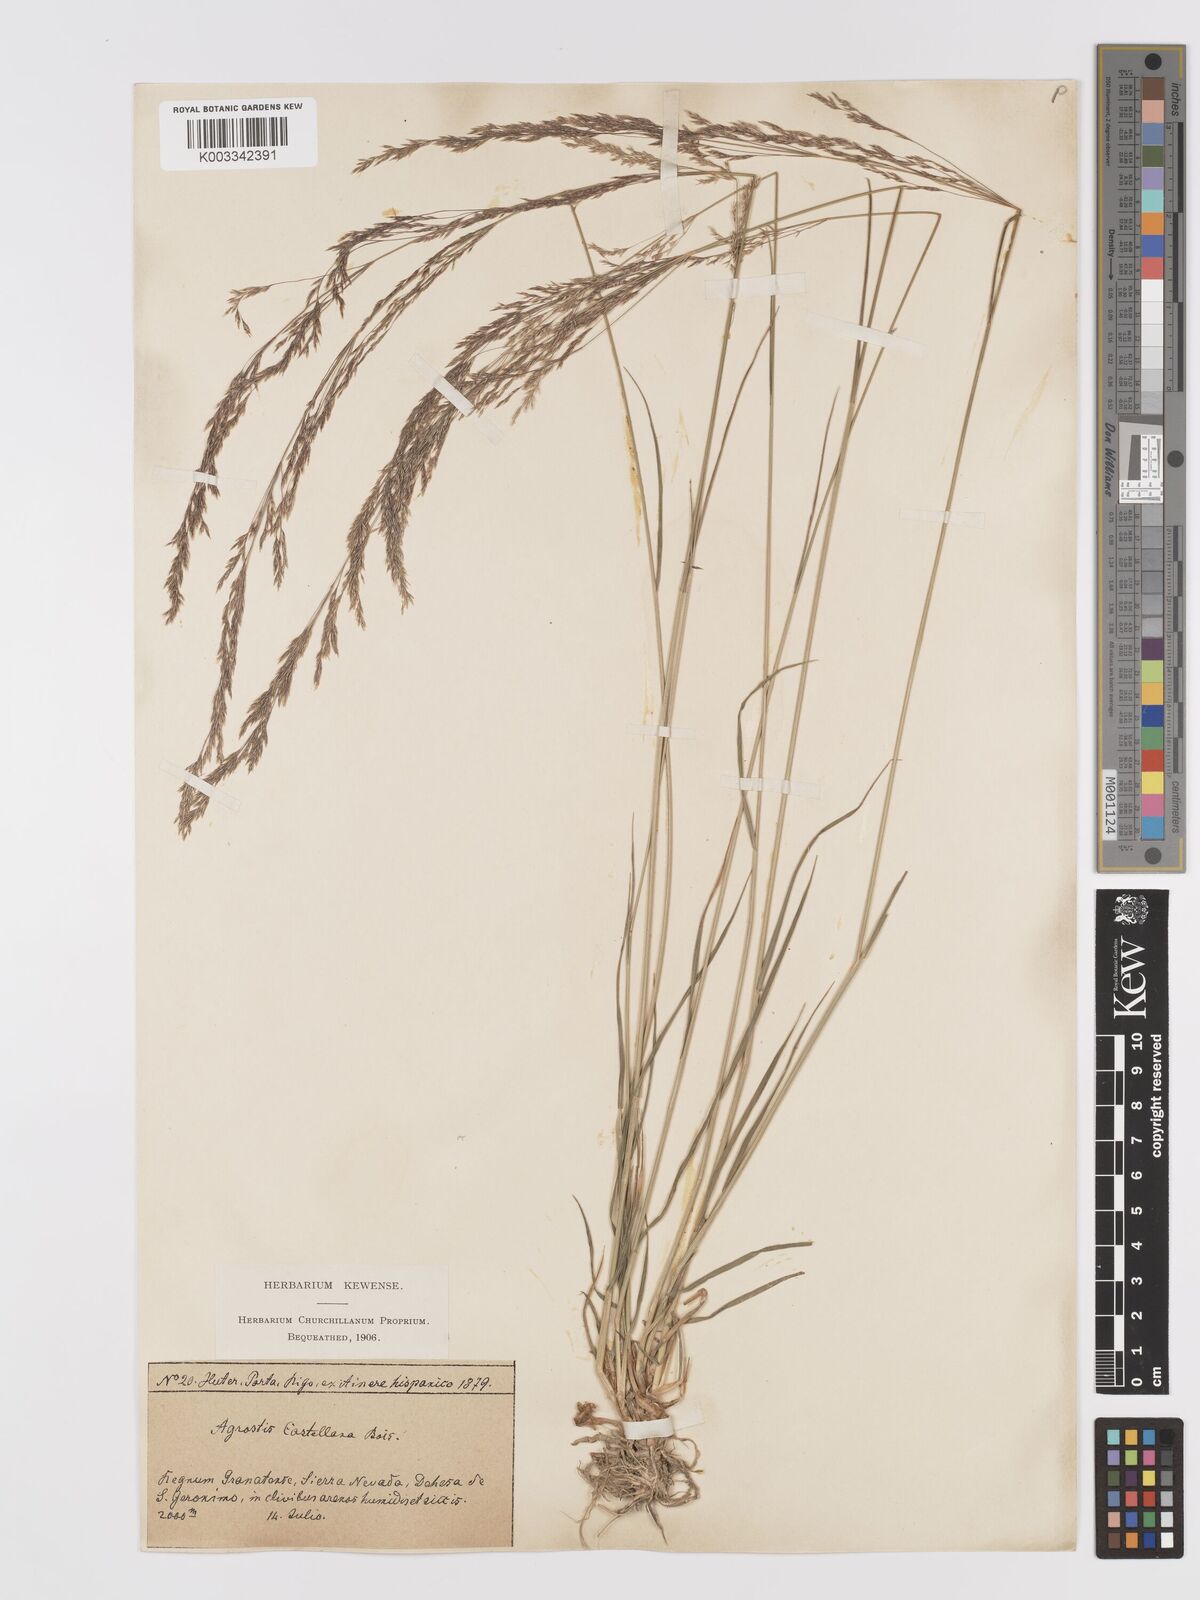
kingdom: Plantae
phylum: Tracheophyta
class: Liliopsida
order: Poales
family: Poaceae
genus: Agrostis
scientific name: Agrostis castellana
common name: Highland bent
